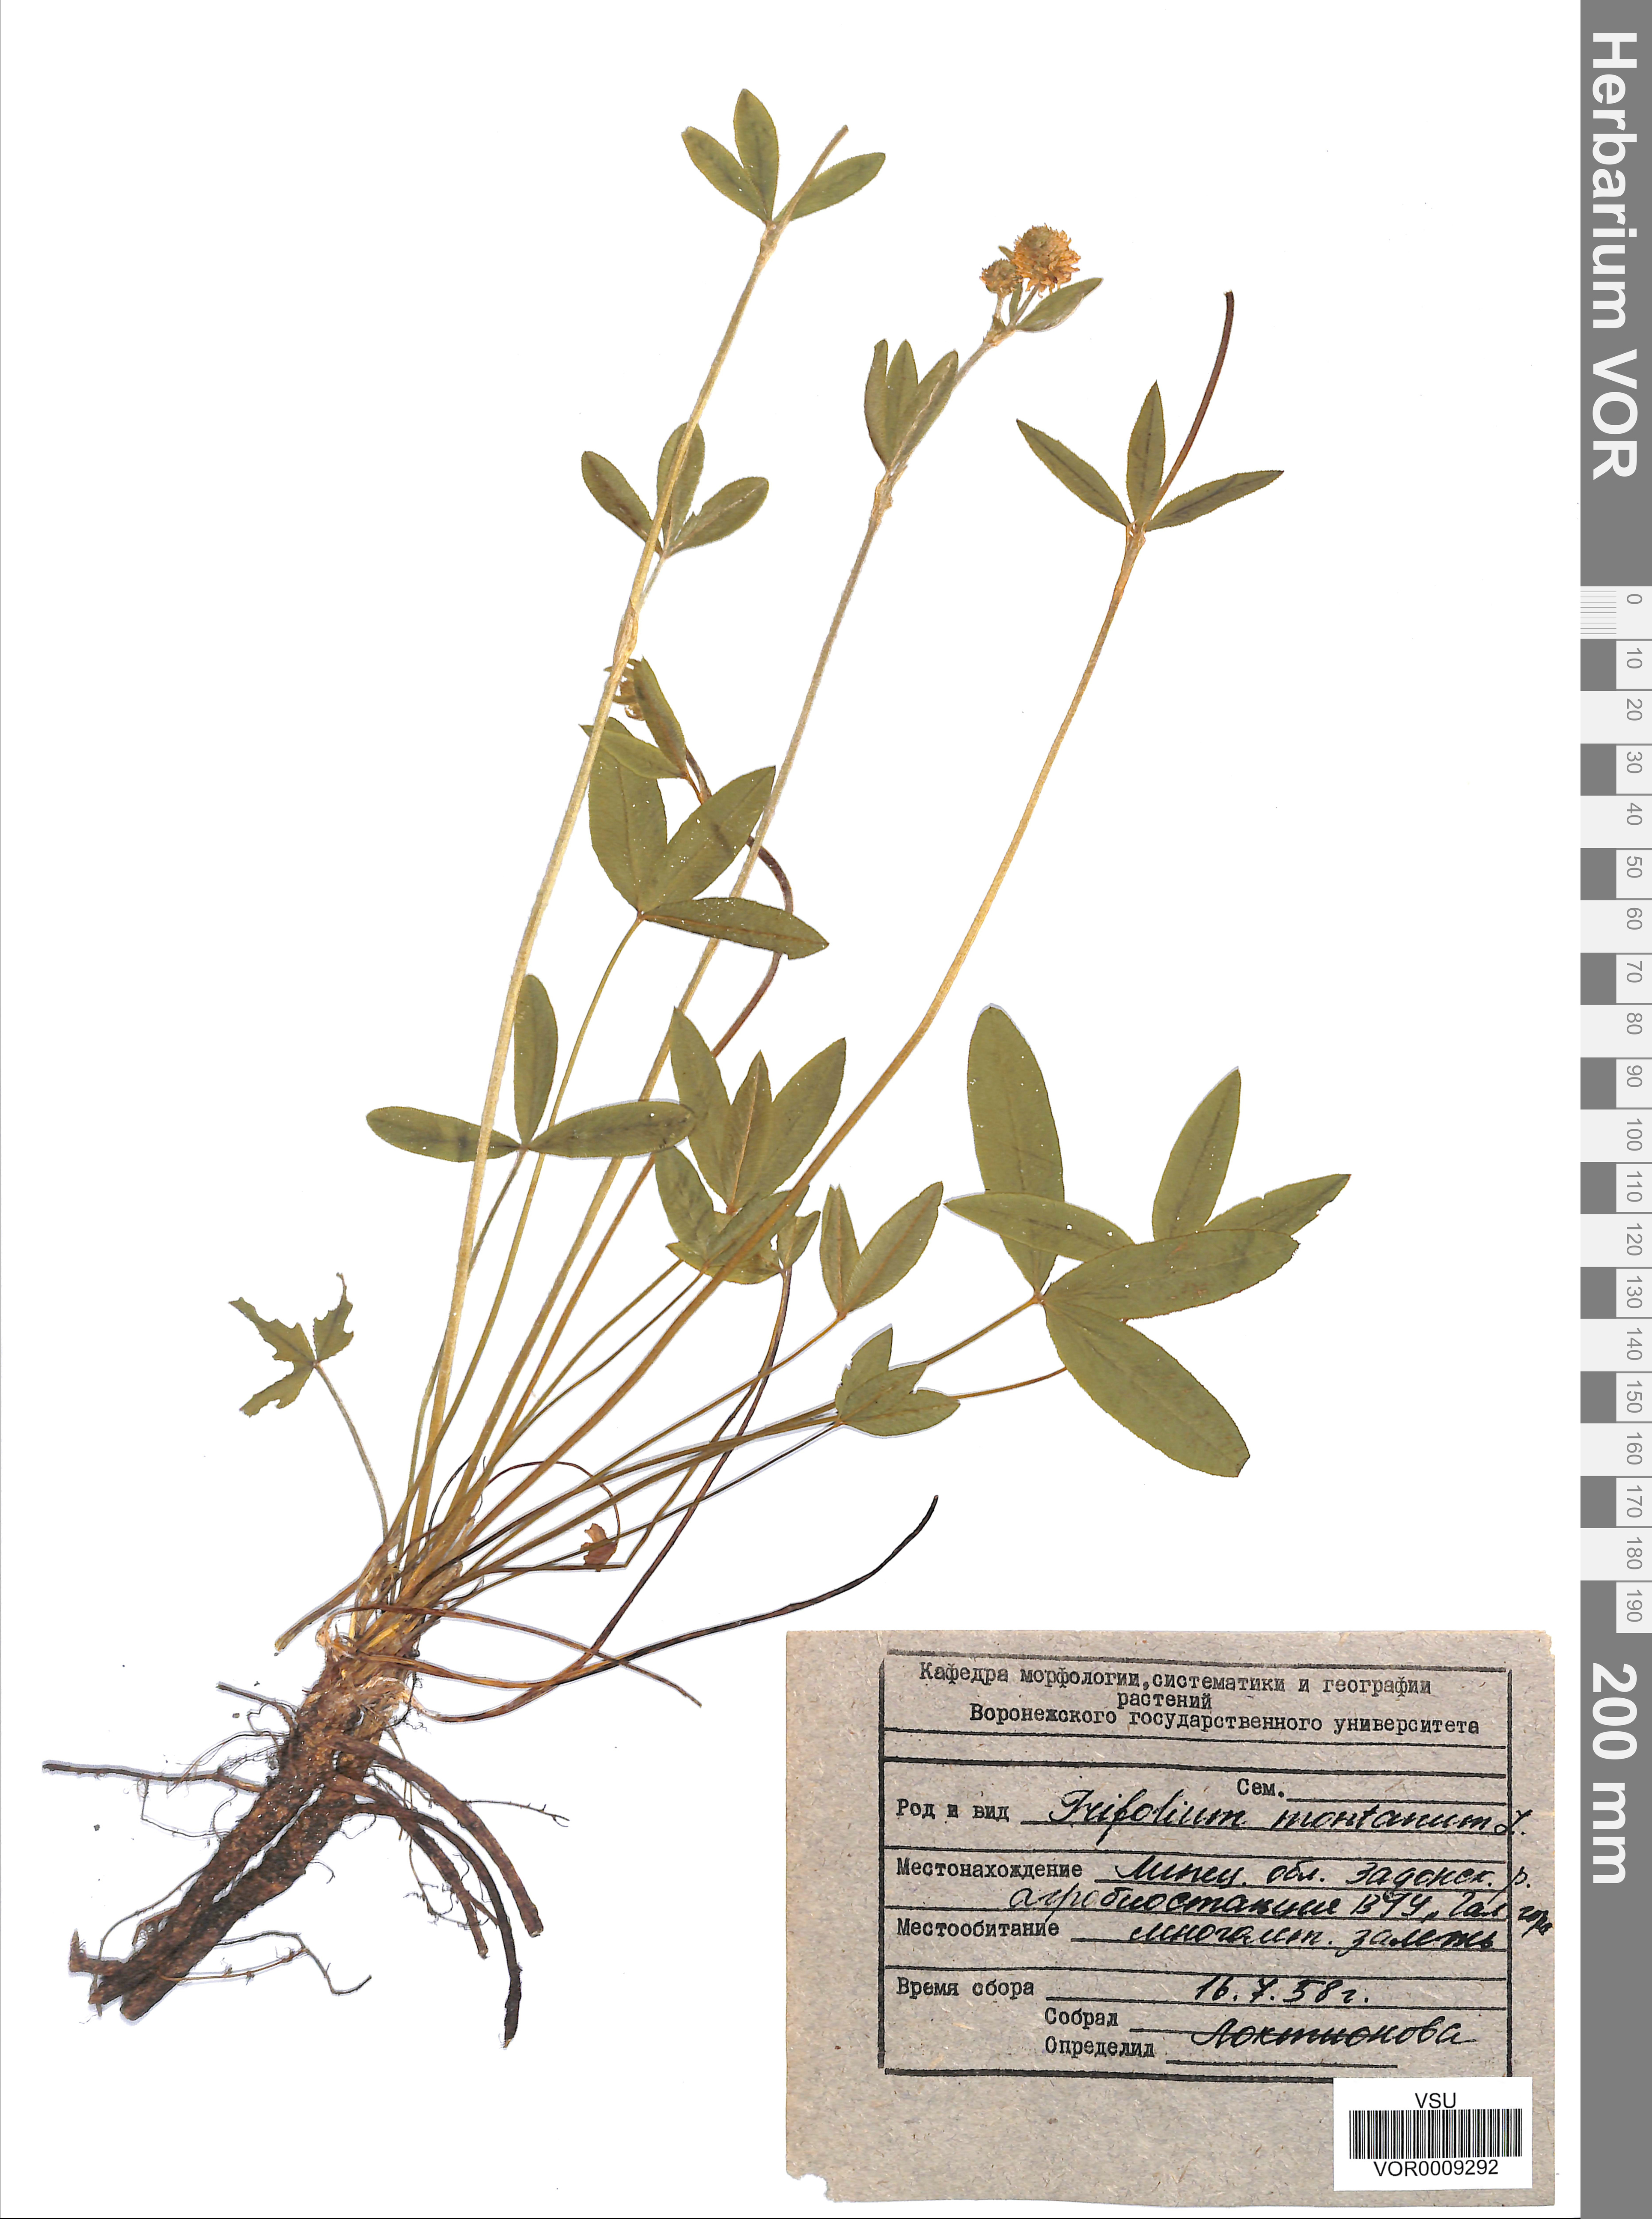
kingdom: Plantae
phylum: Tracheophyta
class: Magnoliopsida
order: Fabales
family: Fabaceae
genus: Trifolium
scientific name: Trifolium montanum
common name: Mountain clover
